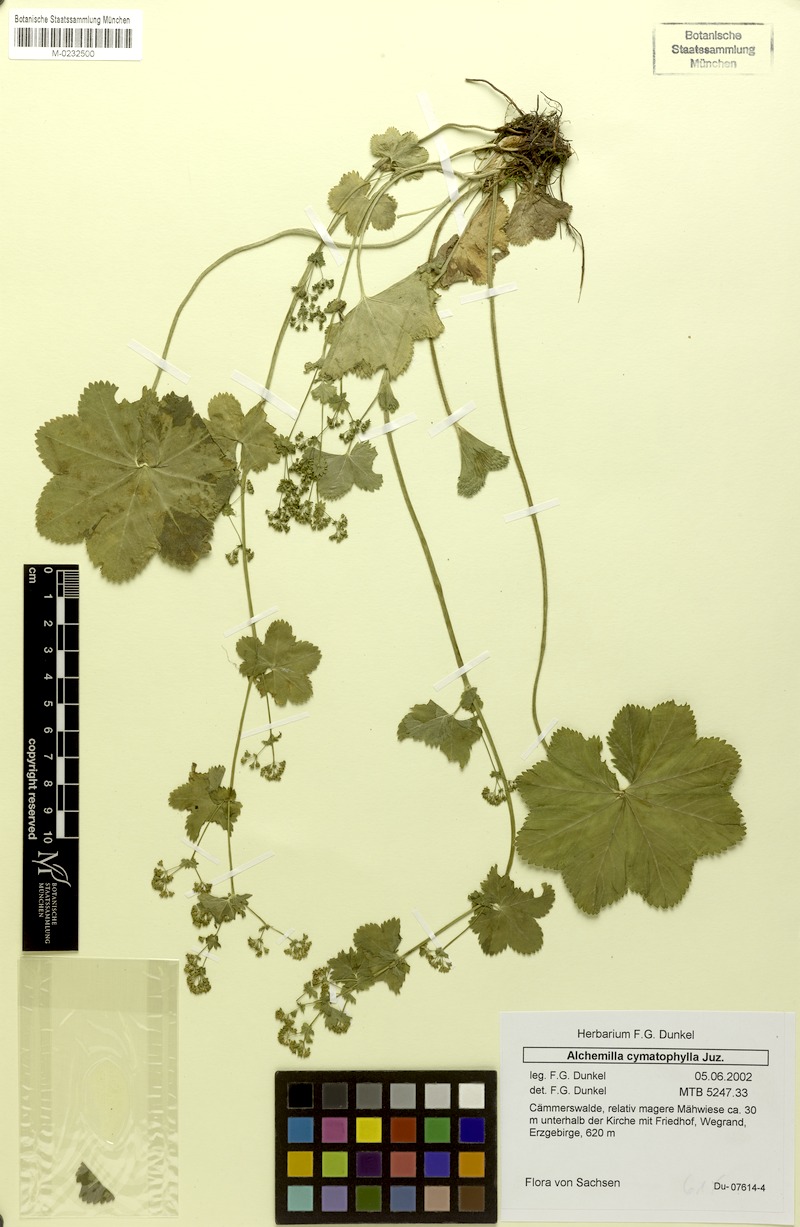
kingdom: Plantae
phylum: Tracheophyta
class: Magnoliopsida
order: Rosales
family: Rosaceae
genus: Alchemilla
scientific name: Alchemilla cymatophylla
